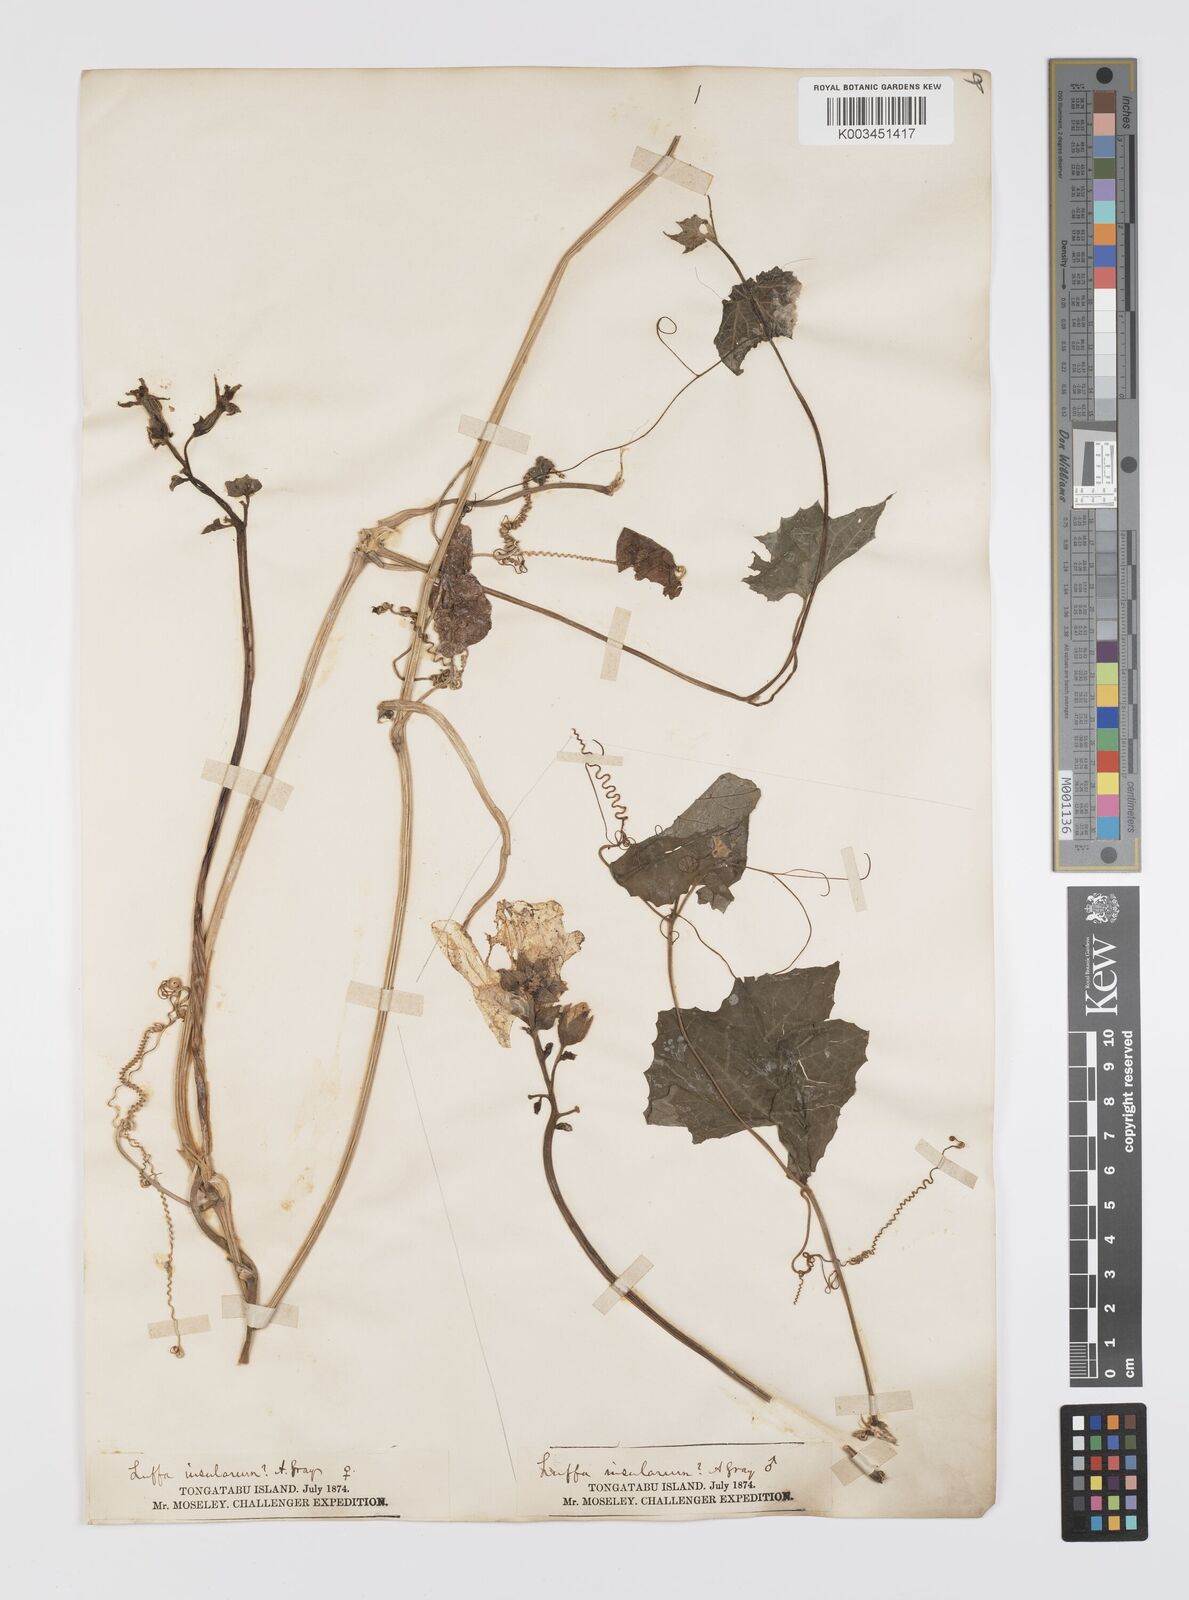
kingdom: Plantae
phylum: Tracheophyta
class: Magnoliopsida
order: Cucurbitales
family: Cucurbitaceae
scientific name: Cucurbitaceae
